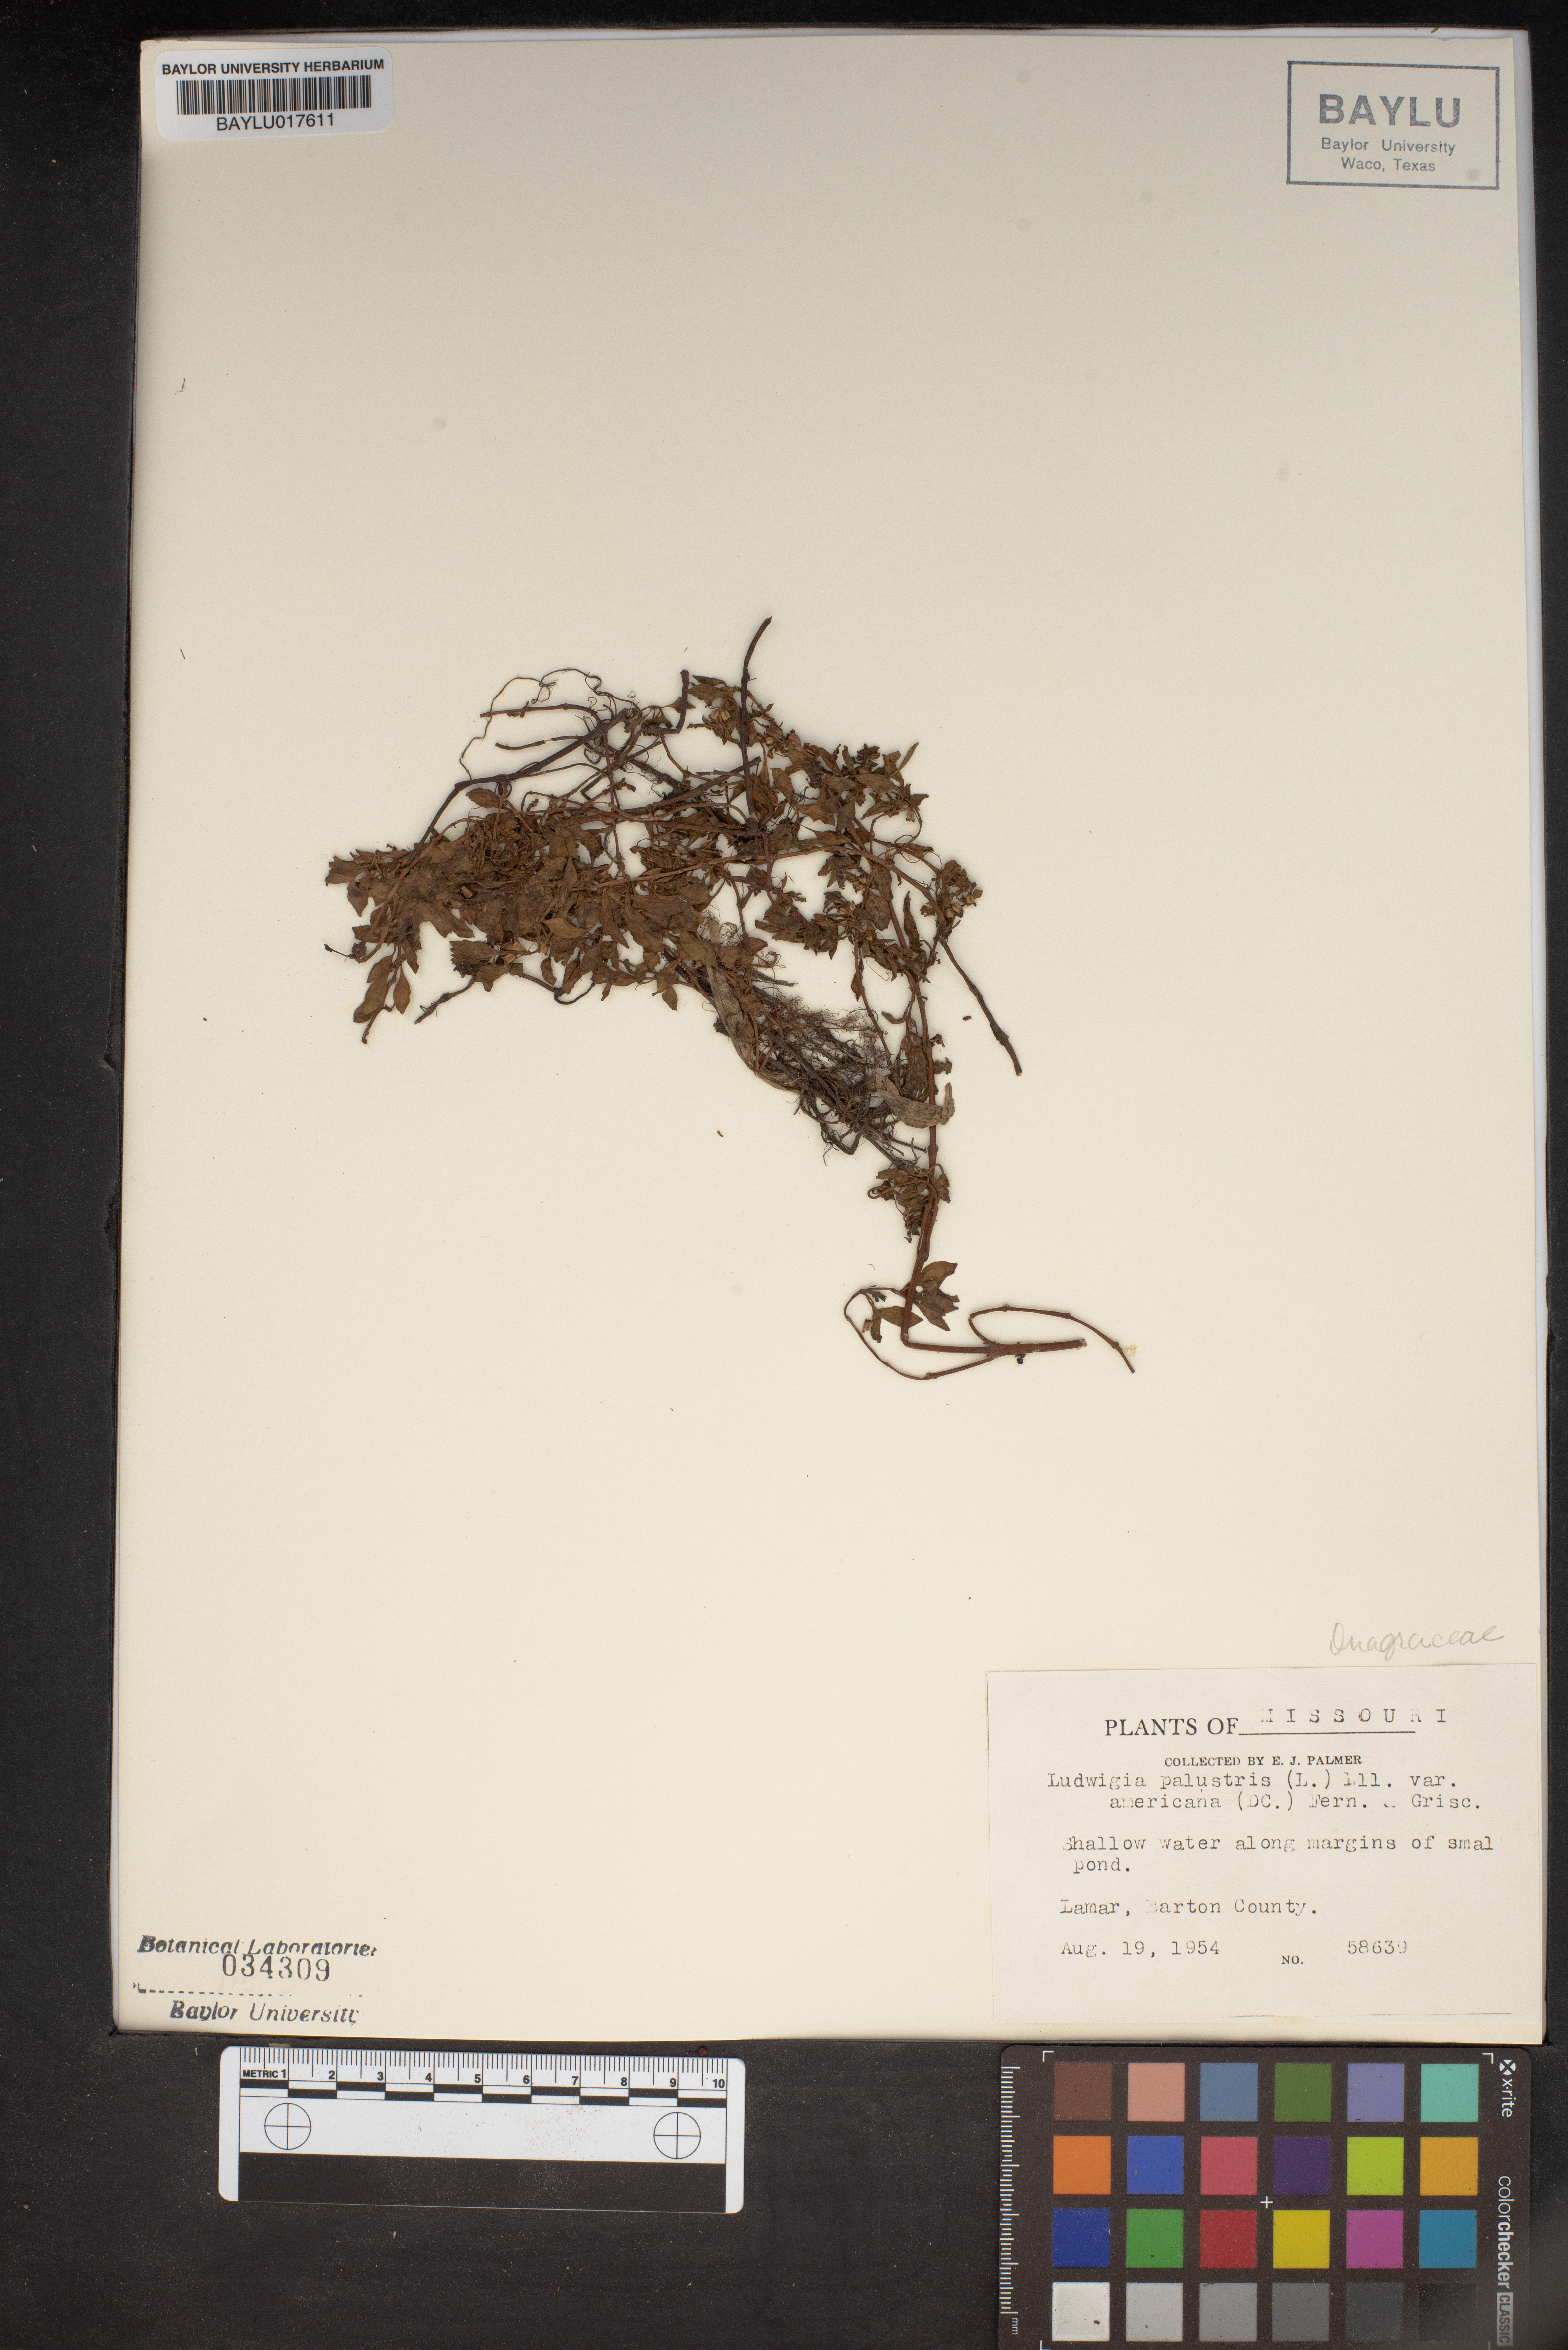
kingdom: Plantae
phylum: Tracheophyta
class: Magnoliopsida
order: Myrtales
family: Onagraceae
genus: Ludwigia
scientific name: Ludwigia palustris
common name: Hampshire-purslane
